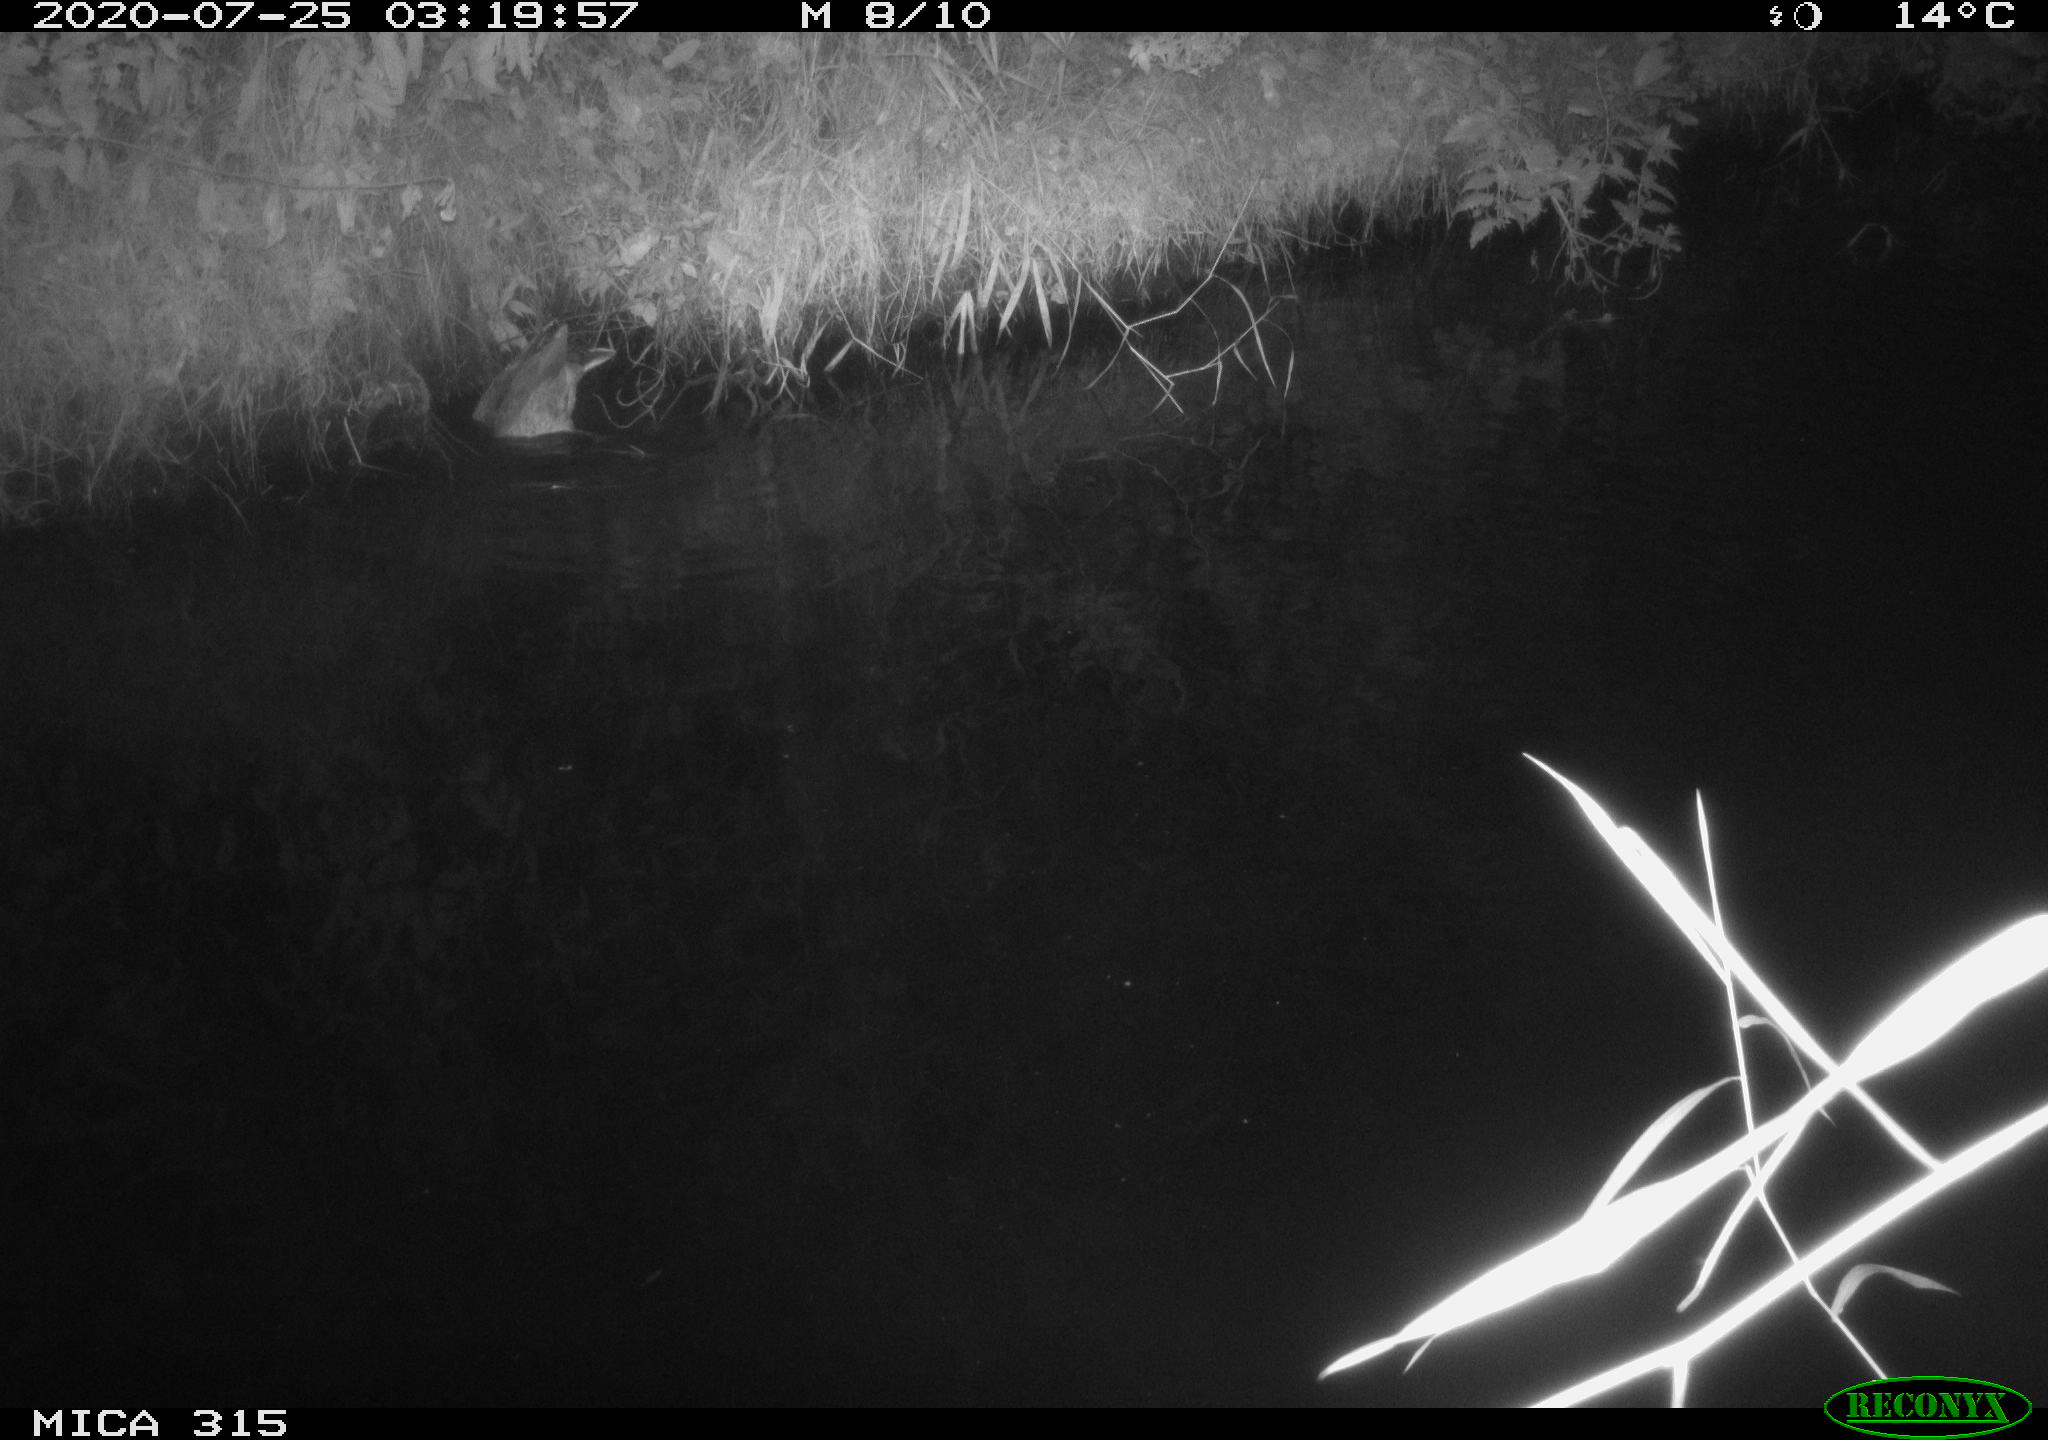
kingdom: Animalia
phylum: Chordata
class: Aves
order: Anseriformes
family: Anatidae
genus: Anas
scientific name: Anas platyrhynchos
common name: Mallard
